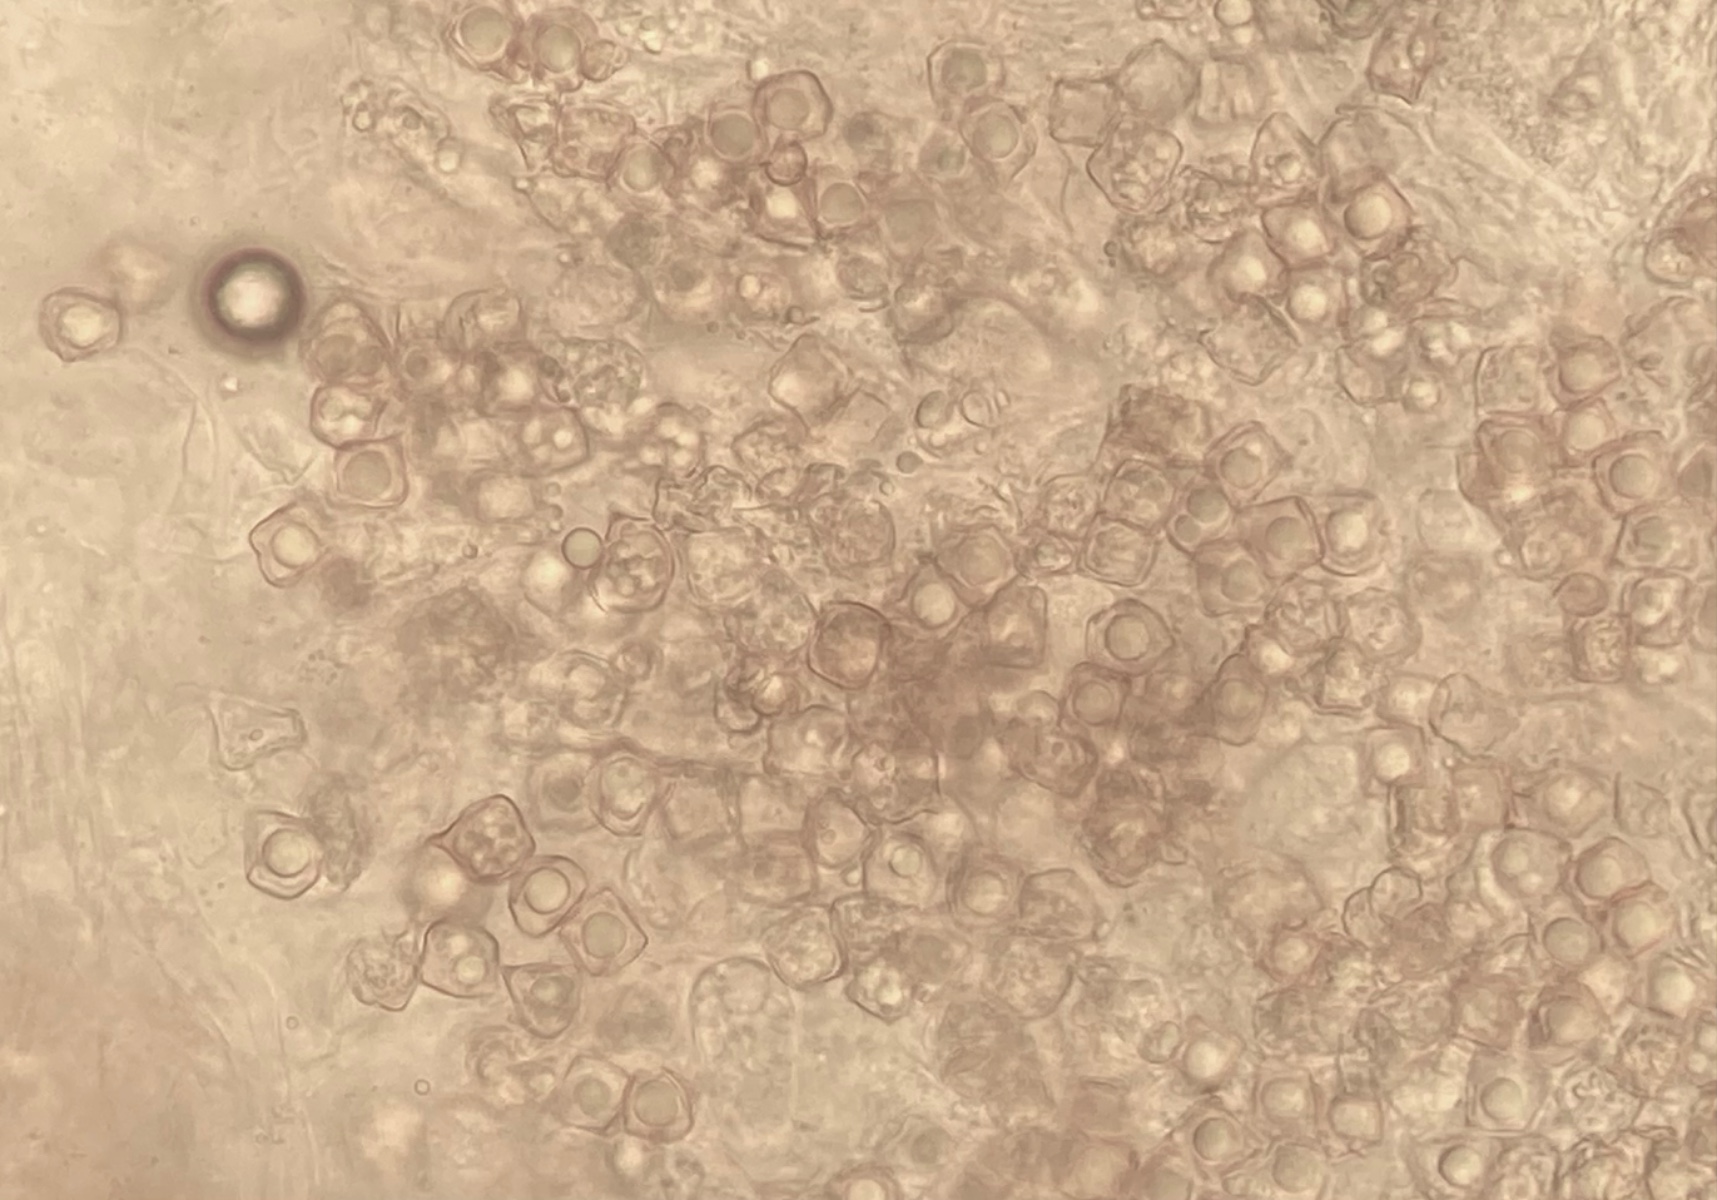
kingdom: Fungi
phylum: Basidiomycota
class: Agaricomycetes
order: Agaricales
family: Entolomataceae
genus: Entoloma
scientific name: Entoloma pygmaeopapillatum
